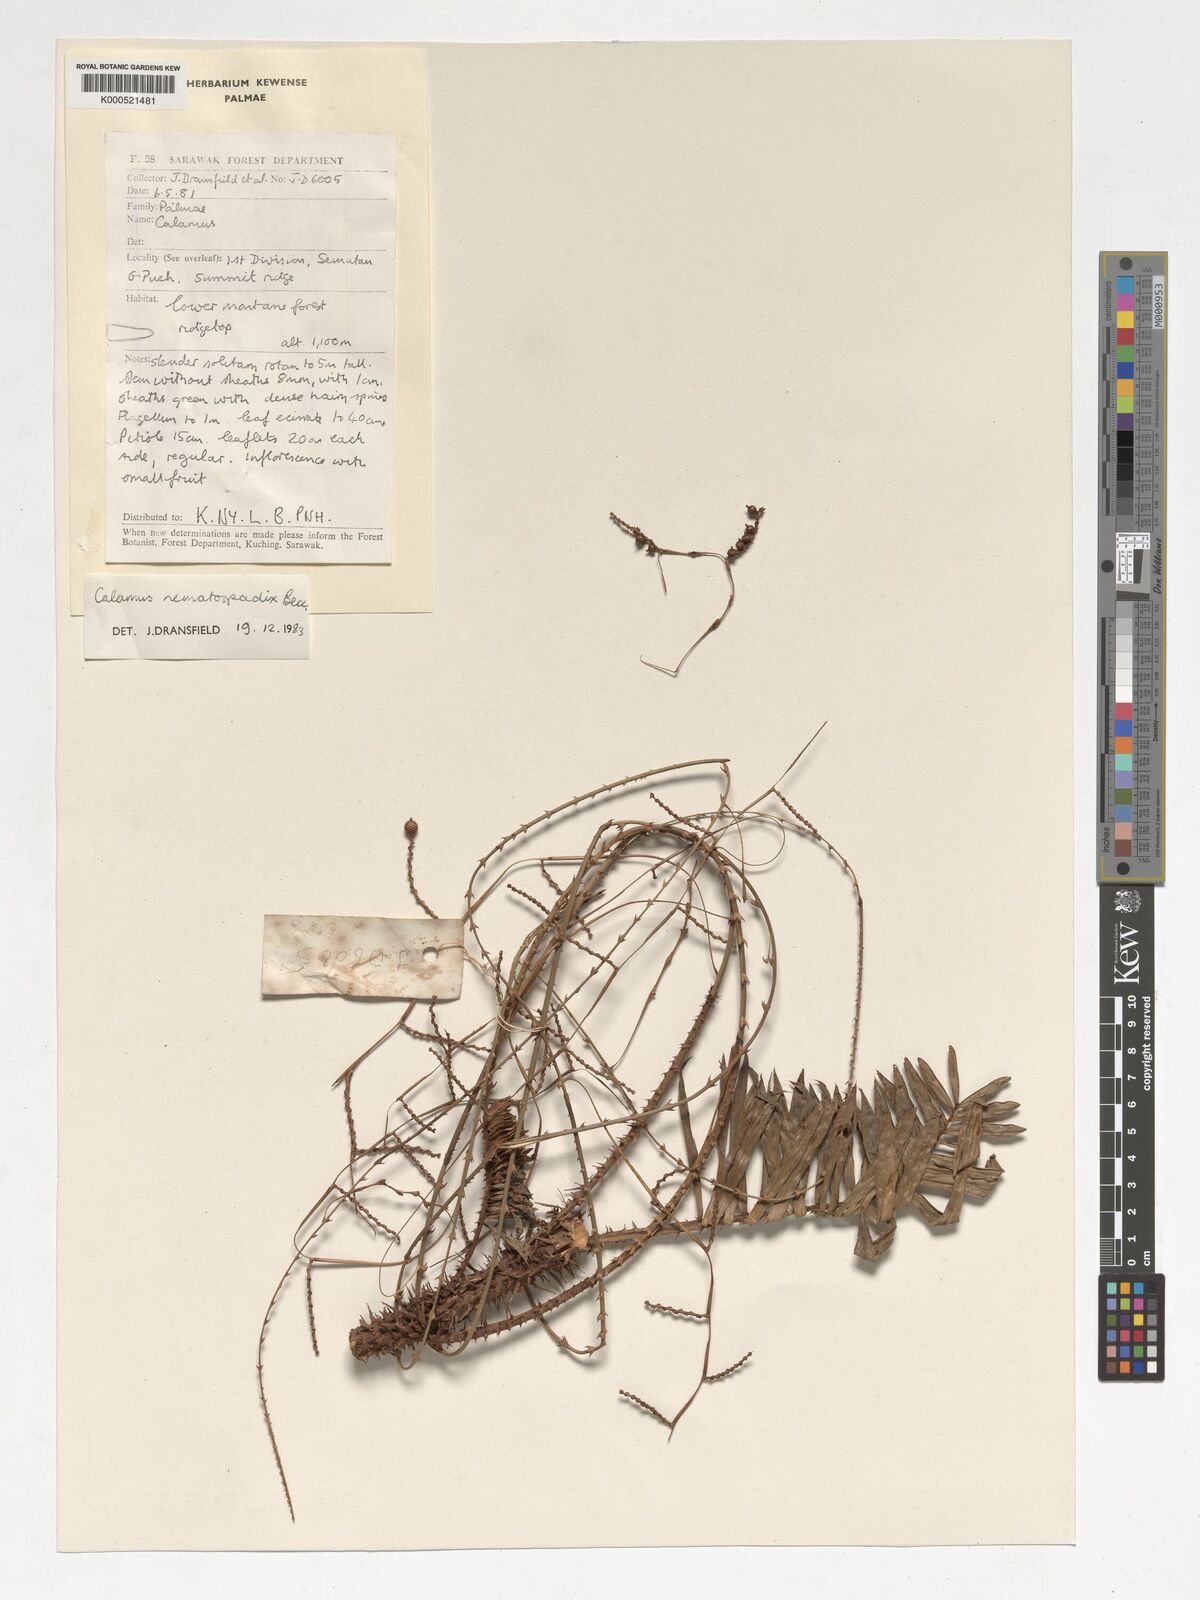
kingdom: Plantae
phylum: Tracheophyta
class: Liliopsida
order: Arecales
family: Arecaceae
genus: Calamus
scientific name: Calamus nematospadix
